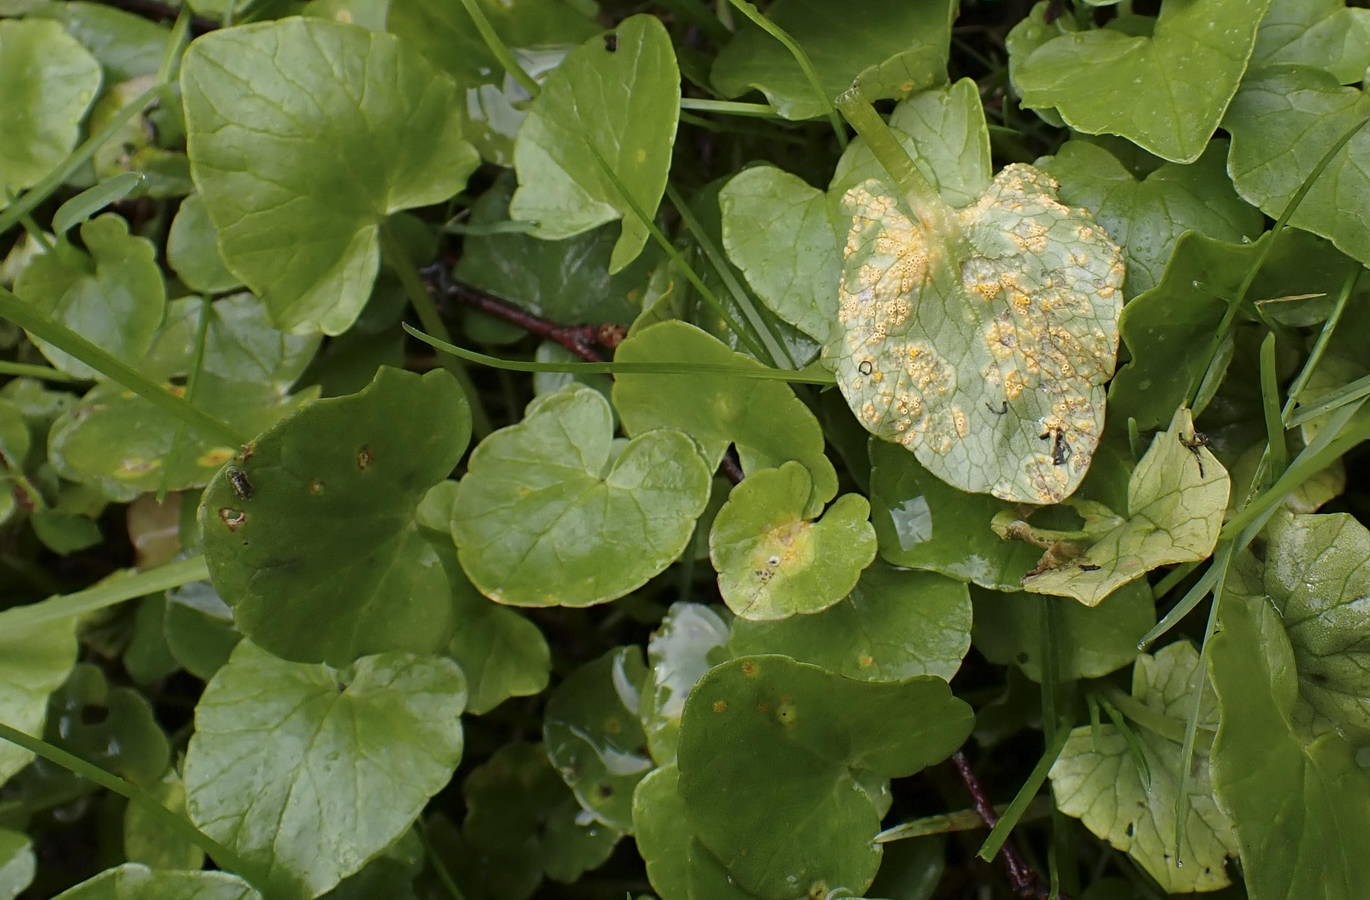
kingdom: Fungi
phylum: Basidiomycota
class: Pucciniomycetes
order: Pucciniales
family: Pucciniaceae
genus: Uromyces
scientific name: Uromyces dactylidis
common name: ranunkel-encellerust
